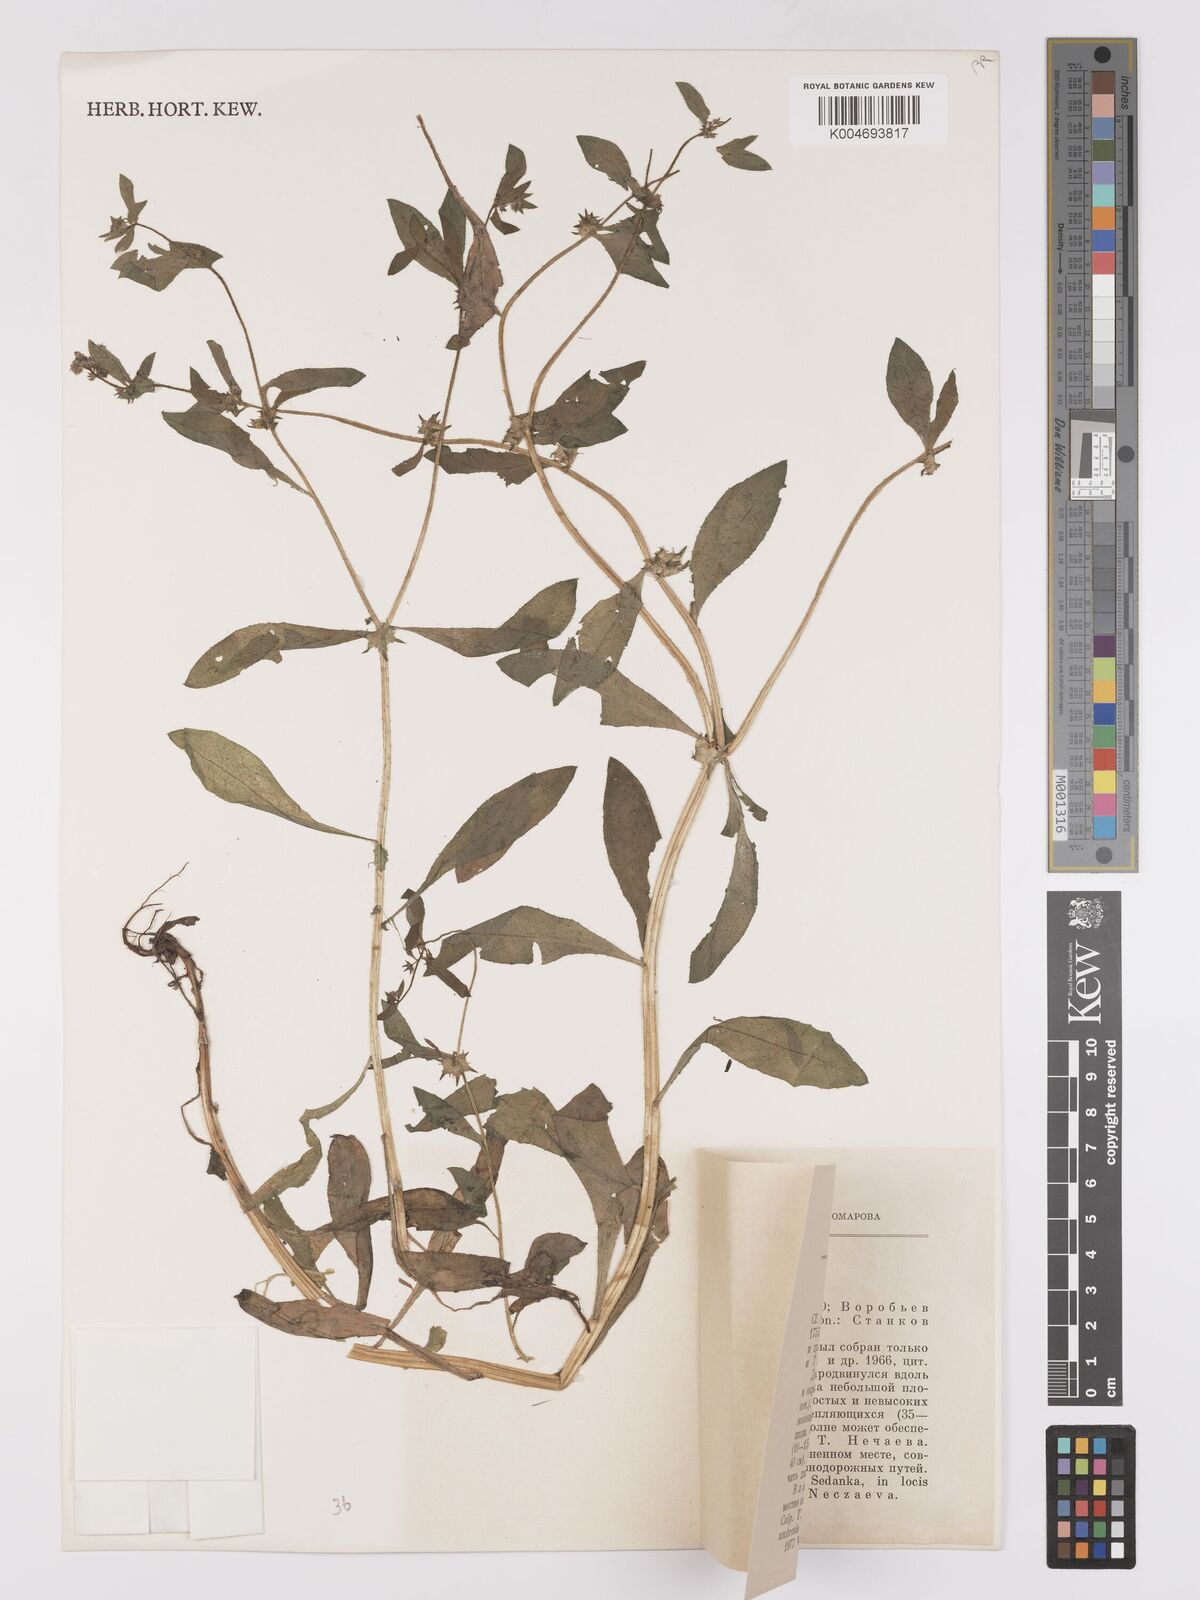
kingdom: Plantae
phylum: Tracheophyta
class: Magnoliopsida
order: Boraginales
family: Boraginaceae
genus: Asperugo
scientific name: Asperugo procumbens
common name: Madwort
